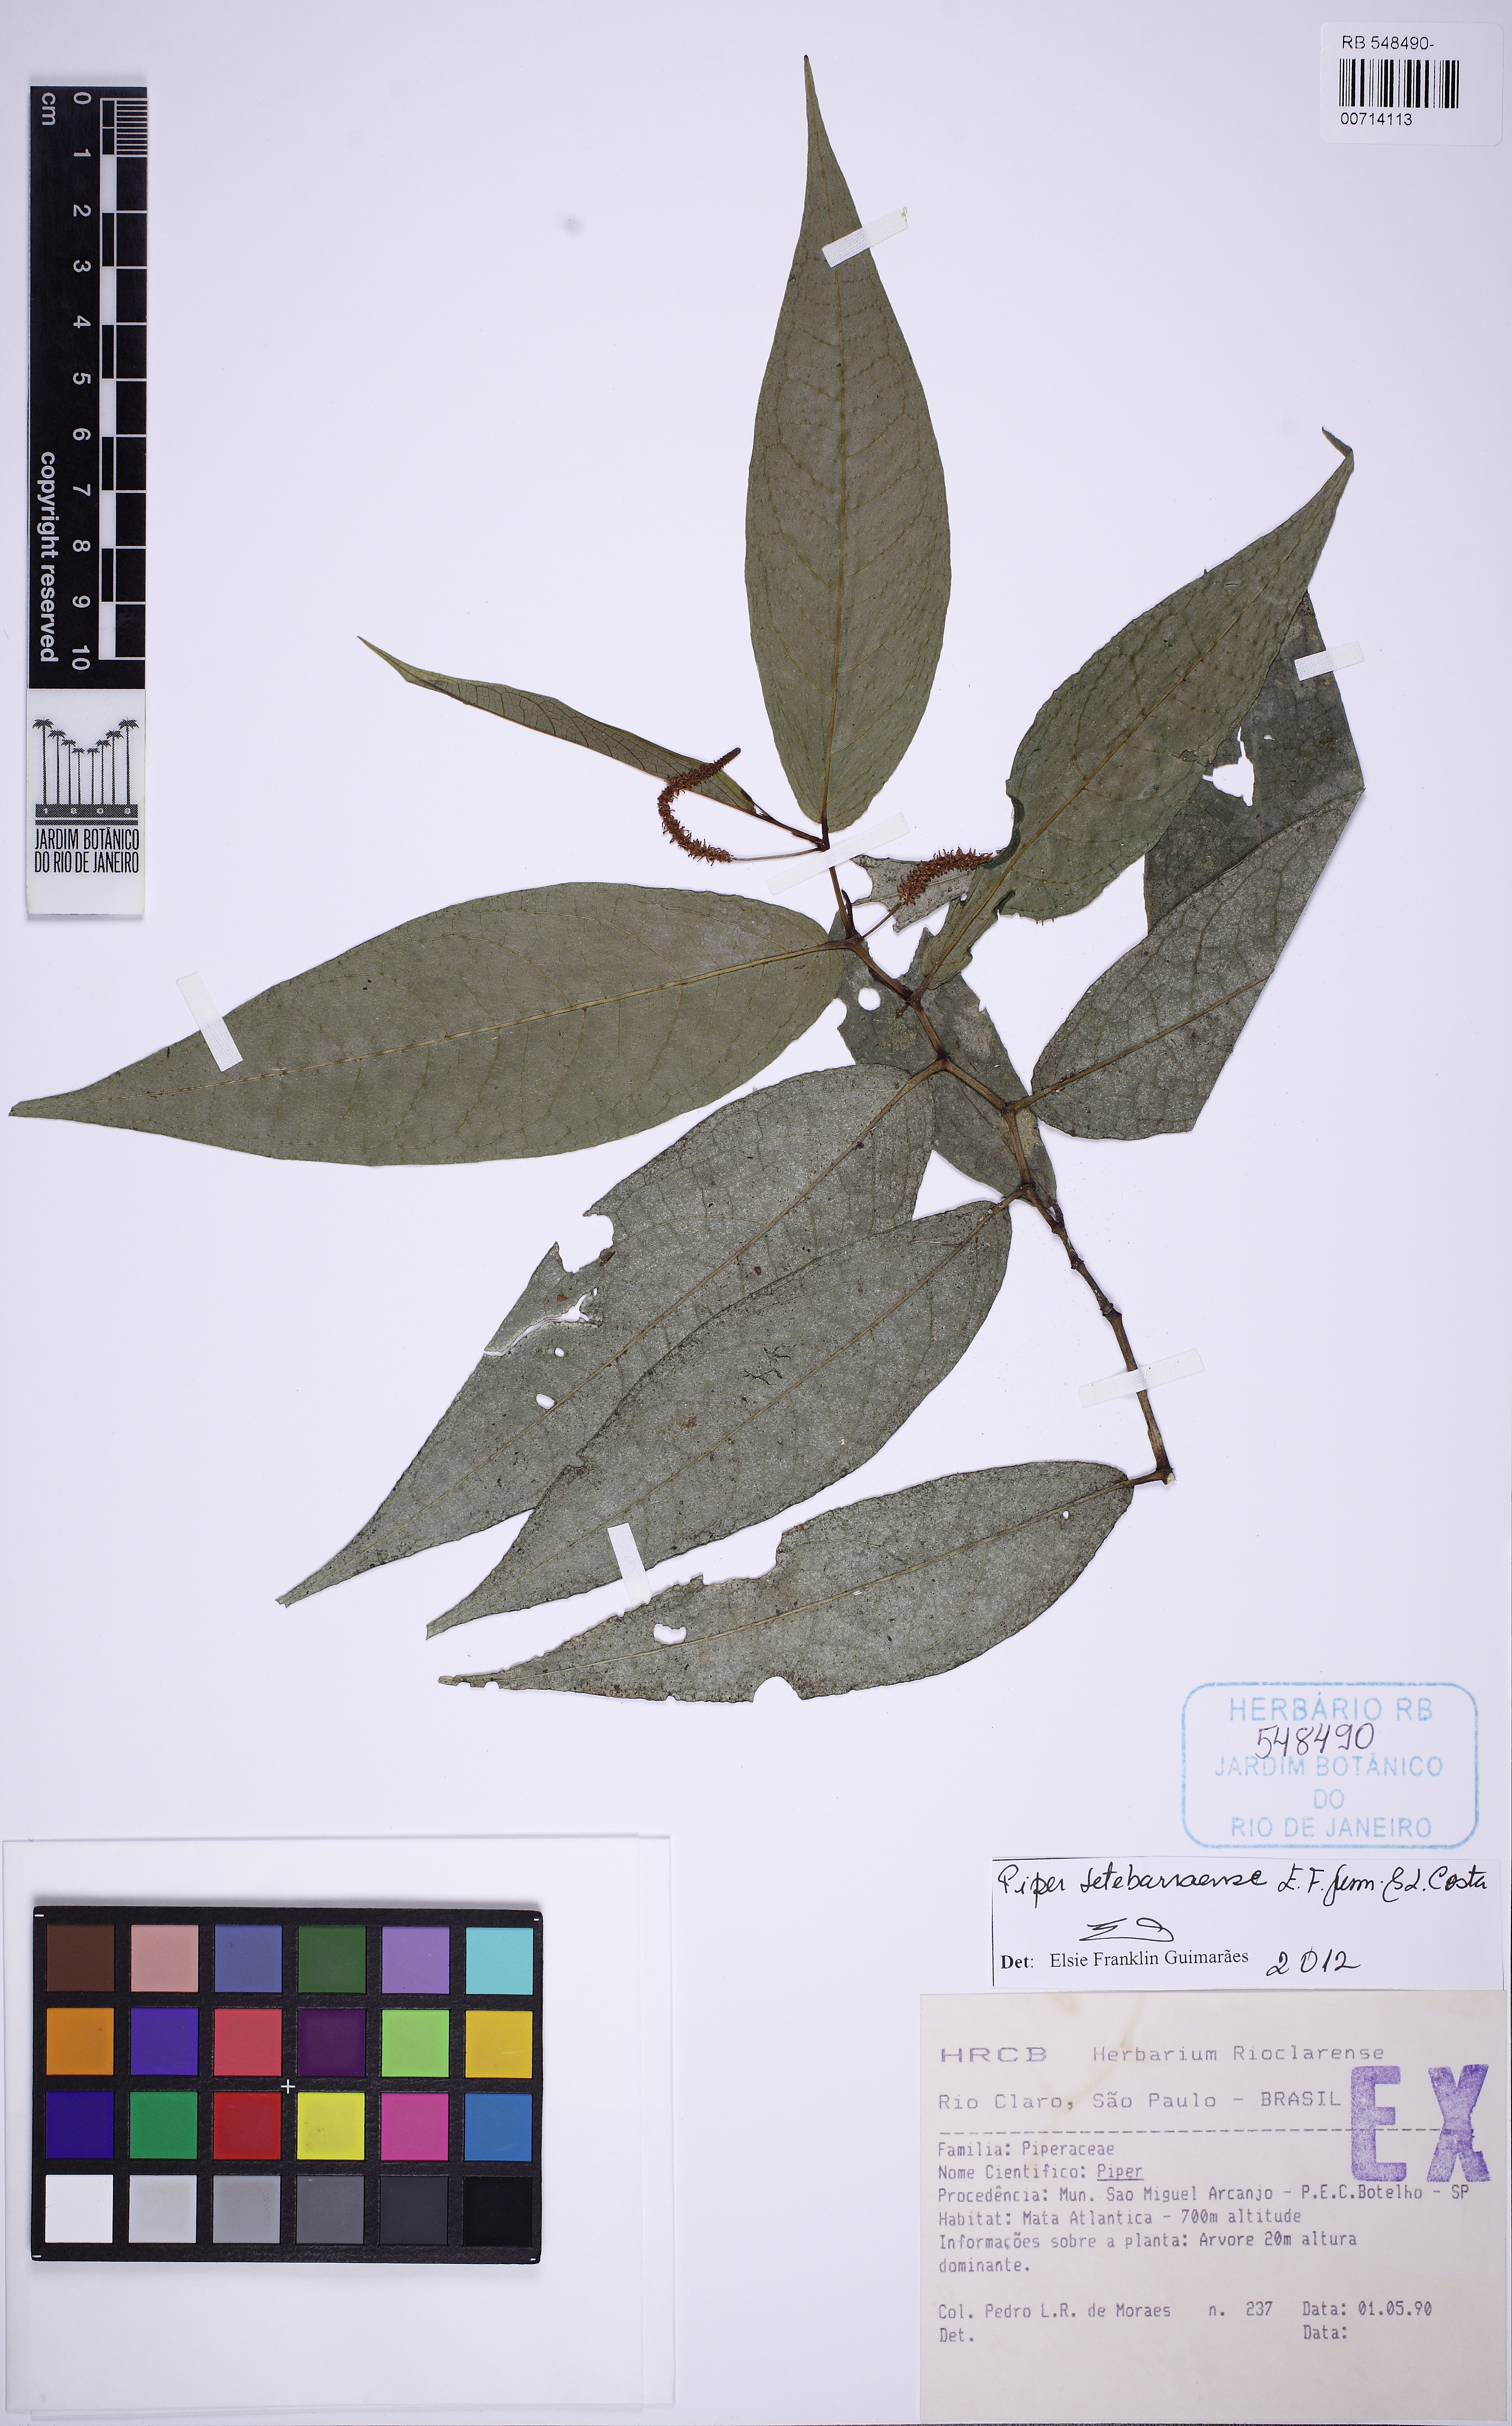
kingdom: Plantae
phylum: Tracheophyta
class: Magnoliopsida
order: Piperales
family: Piperaceae
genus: Piper
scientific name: Piper setebarraense
